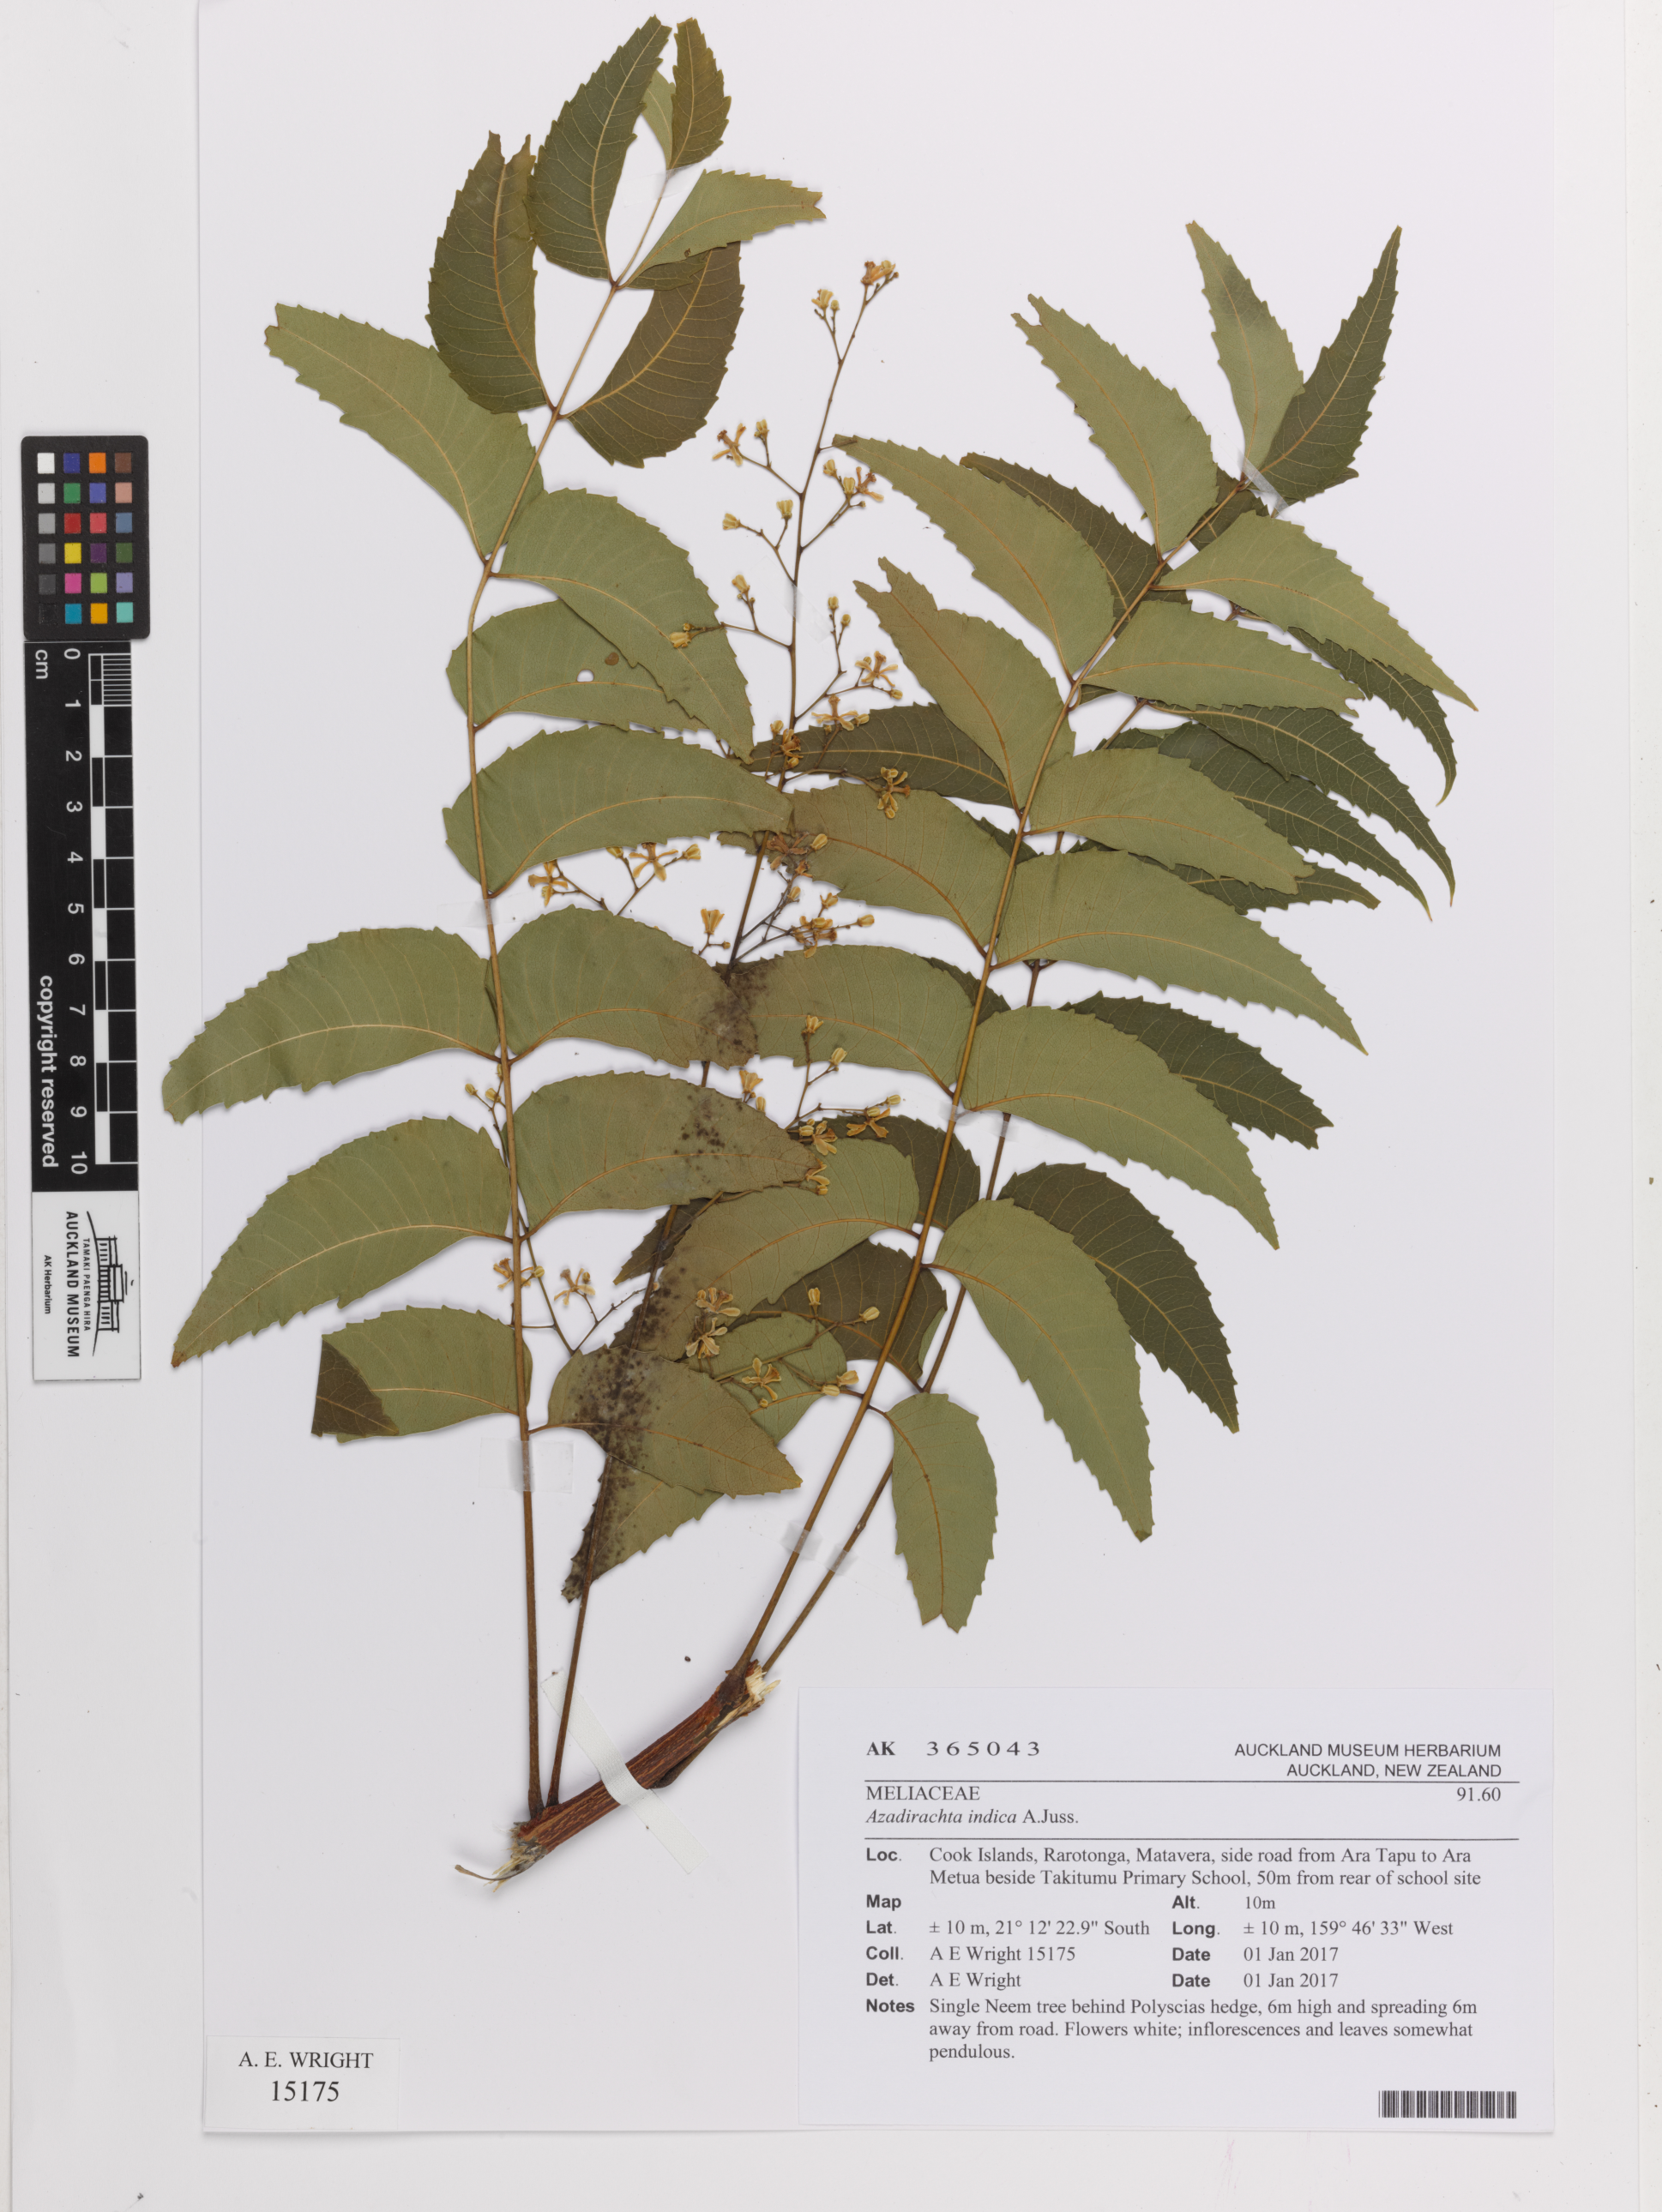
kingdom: Plantae
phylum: Tracheophyta
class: Magnoliopsida
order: Sapindales
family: Meliaceae
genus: Azadirachta
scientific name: Azadirachta indica
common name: Neem
